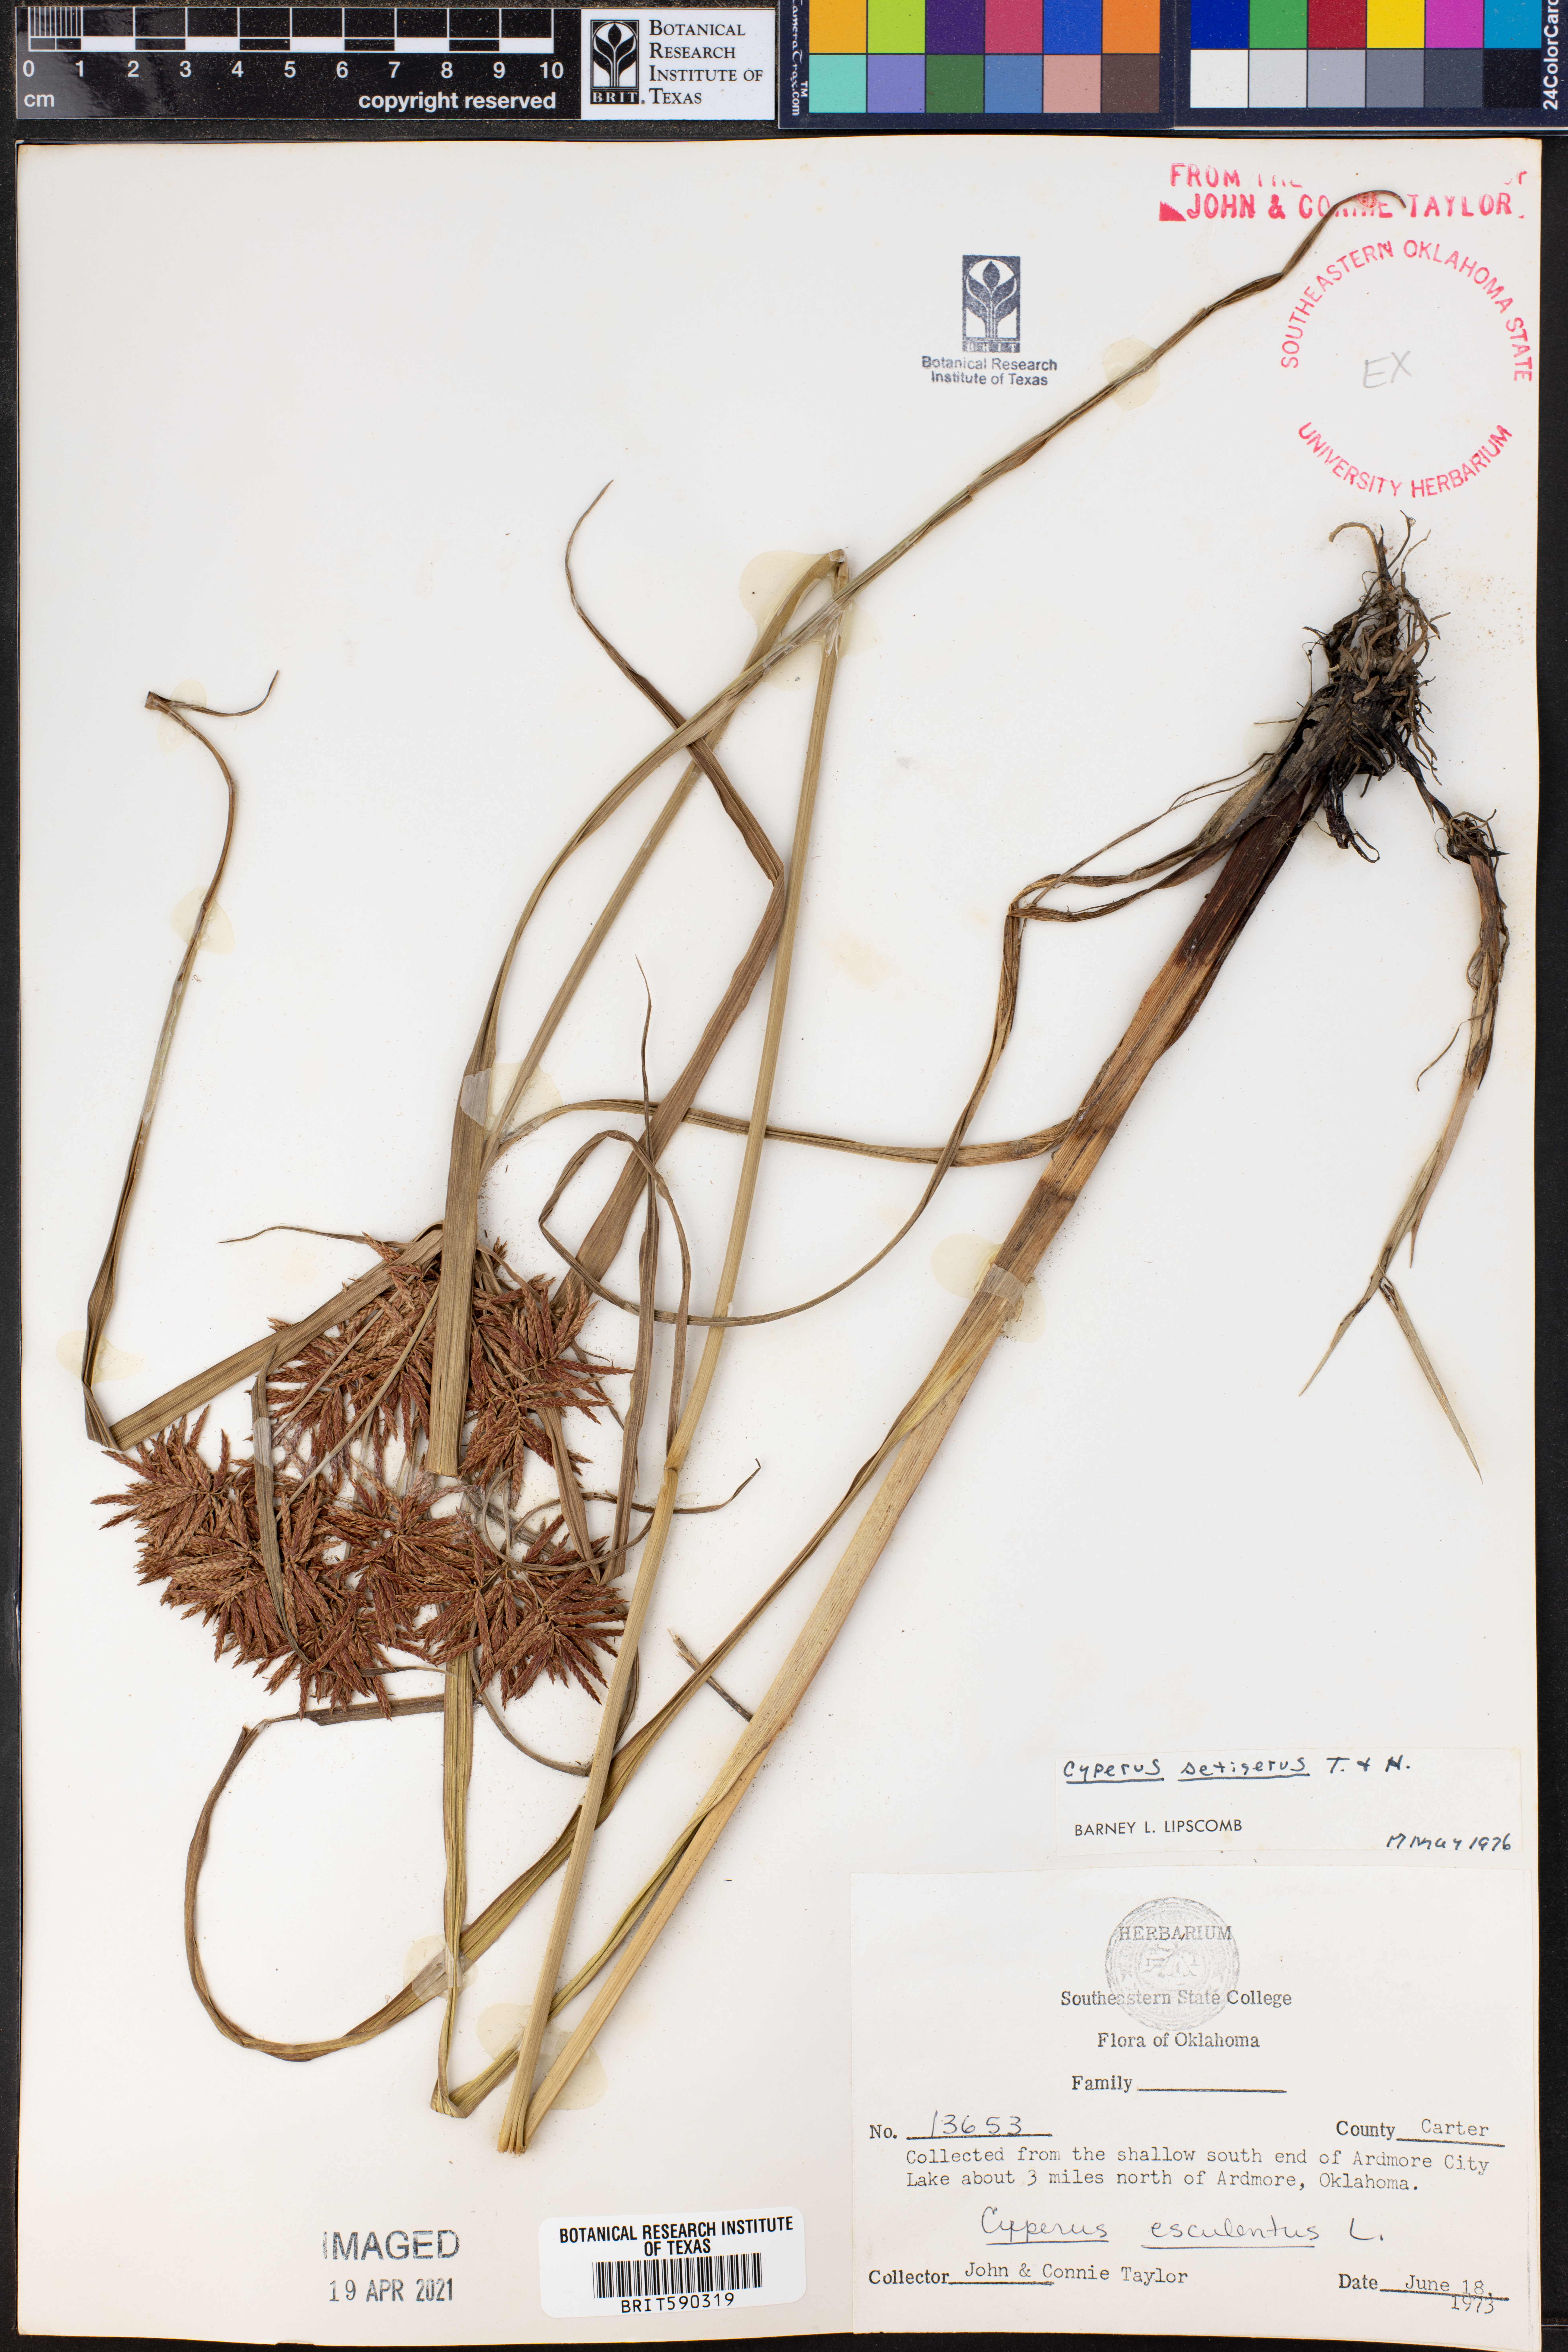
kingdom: Plantae
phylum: Tracheophyta
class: Liliopsida
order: Poales
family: Cyperaceae
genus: Cyperus
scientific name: Cyperus setigerus
